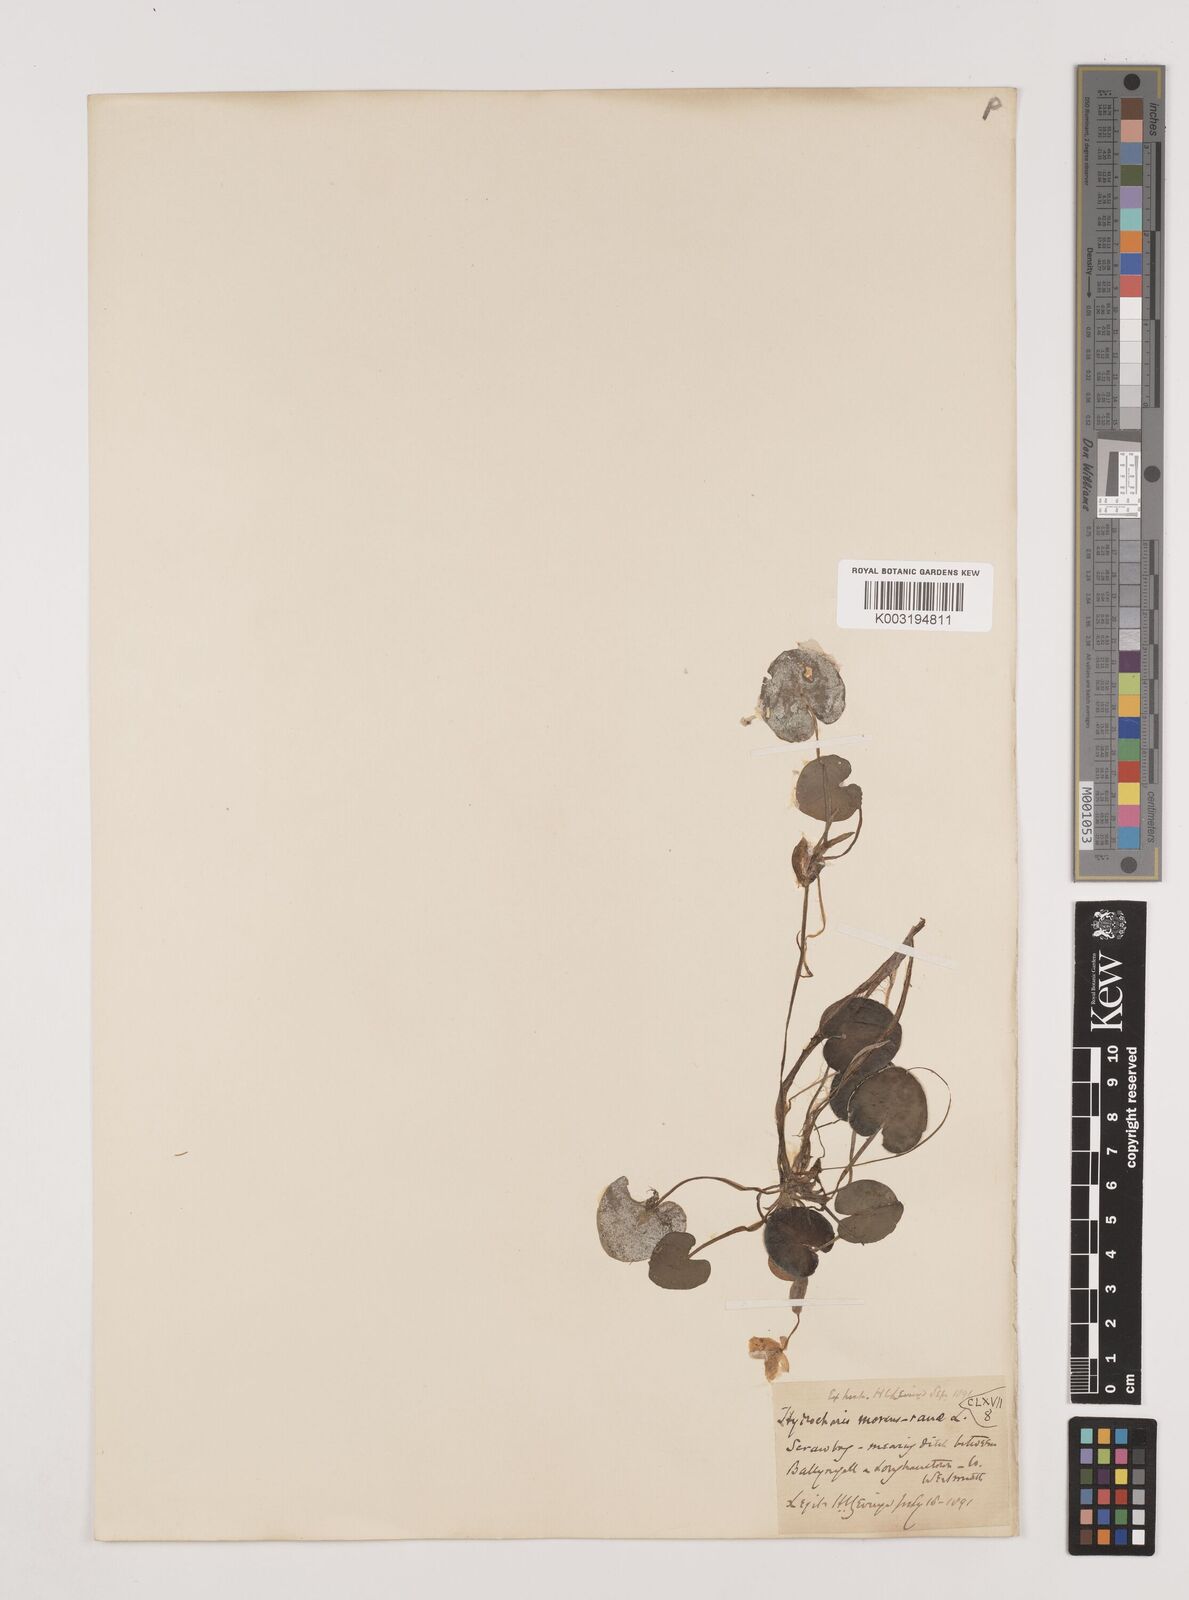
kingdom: Plantae
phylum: Tracheophyta
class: Liliopsida
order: Alismatales
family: Hydrocharitaceae
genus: Hydrocharis
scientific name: Hydrocharis morsus-ranae
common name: Frogbit
